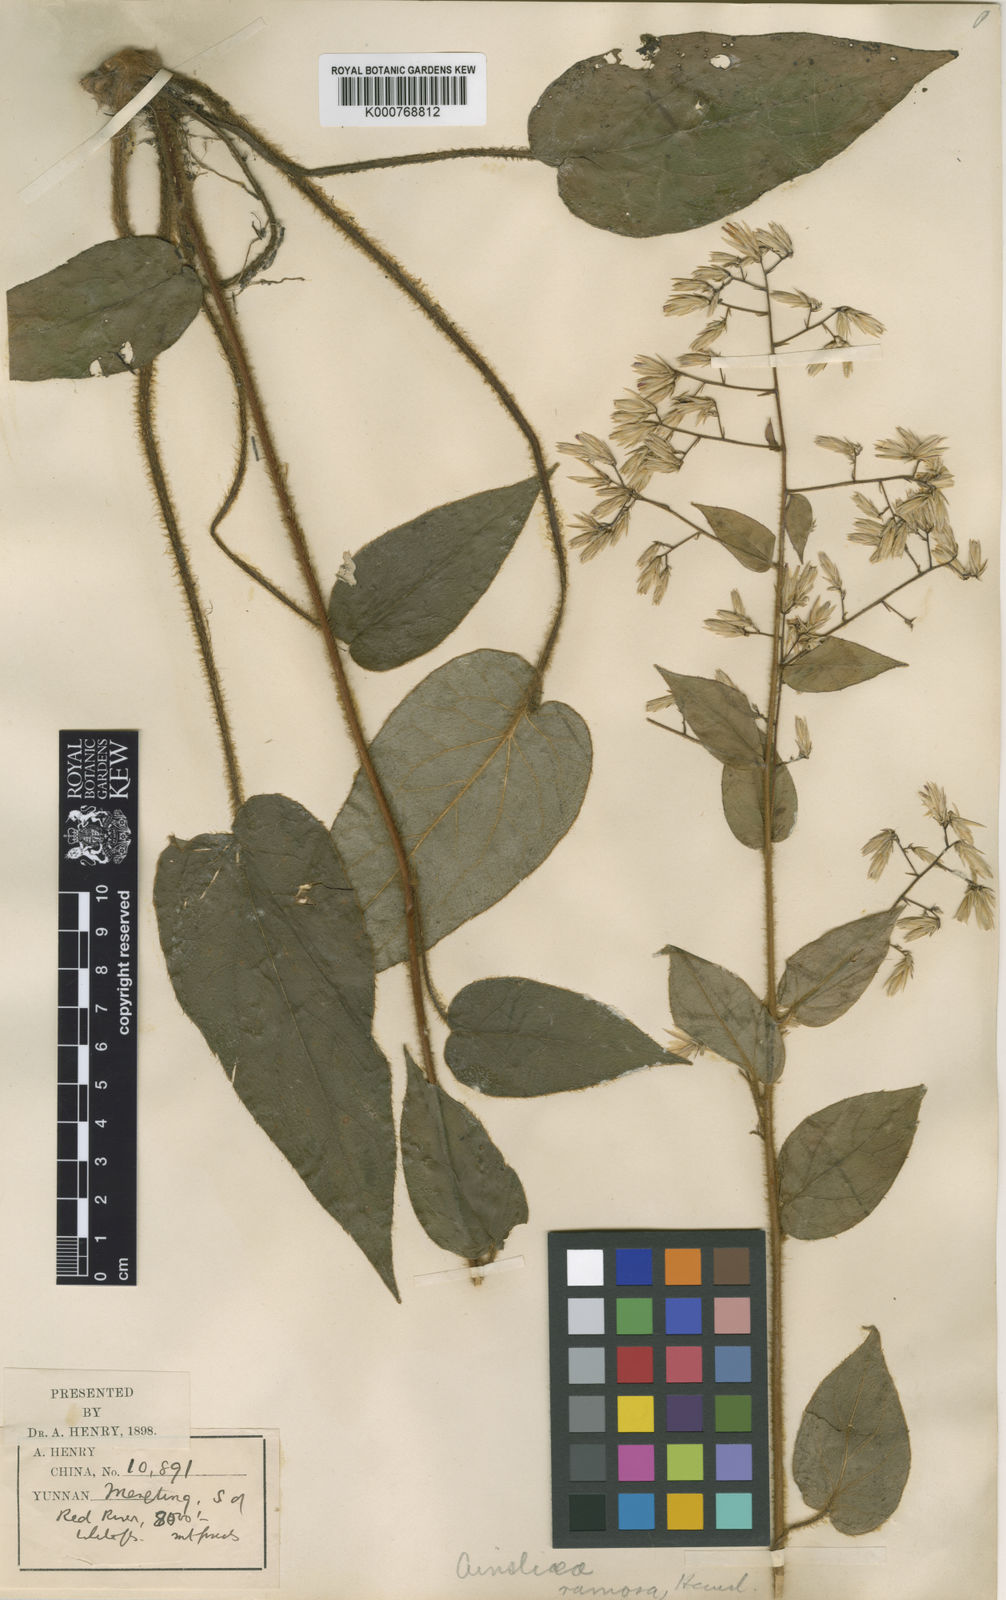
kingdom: Plantae
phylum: Tracheophyta
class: Magnoliopsida
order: Asterales
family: Asteraceae
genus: Ainsliaea
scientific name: Ainsliaea elegans
